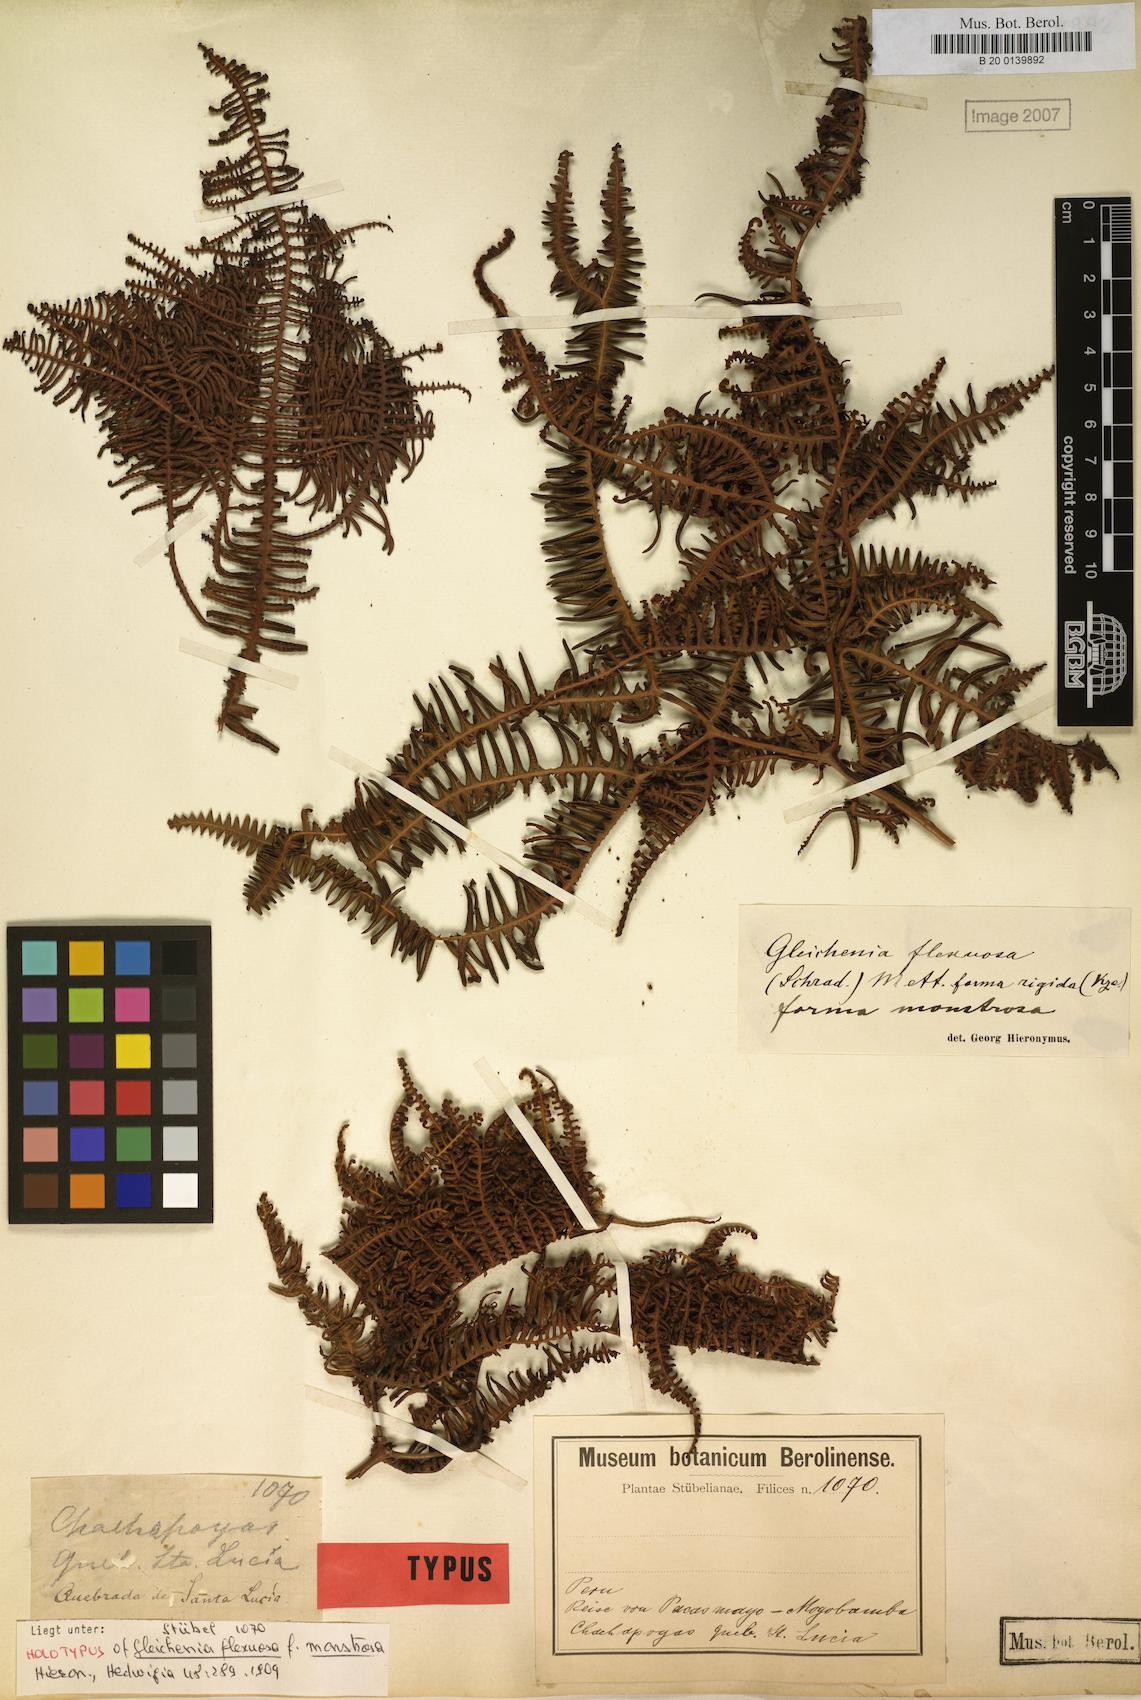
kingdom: Plantae
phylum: Tracheophyta
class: Polypodiopsida
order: Gleicheniales
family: Gleicheniaceae
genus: Dicranopteris
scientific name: Dicranopteris flexuosa
